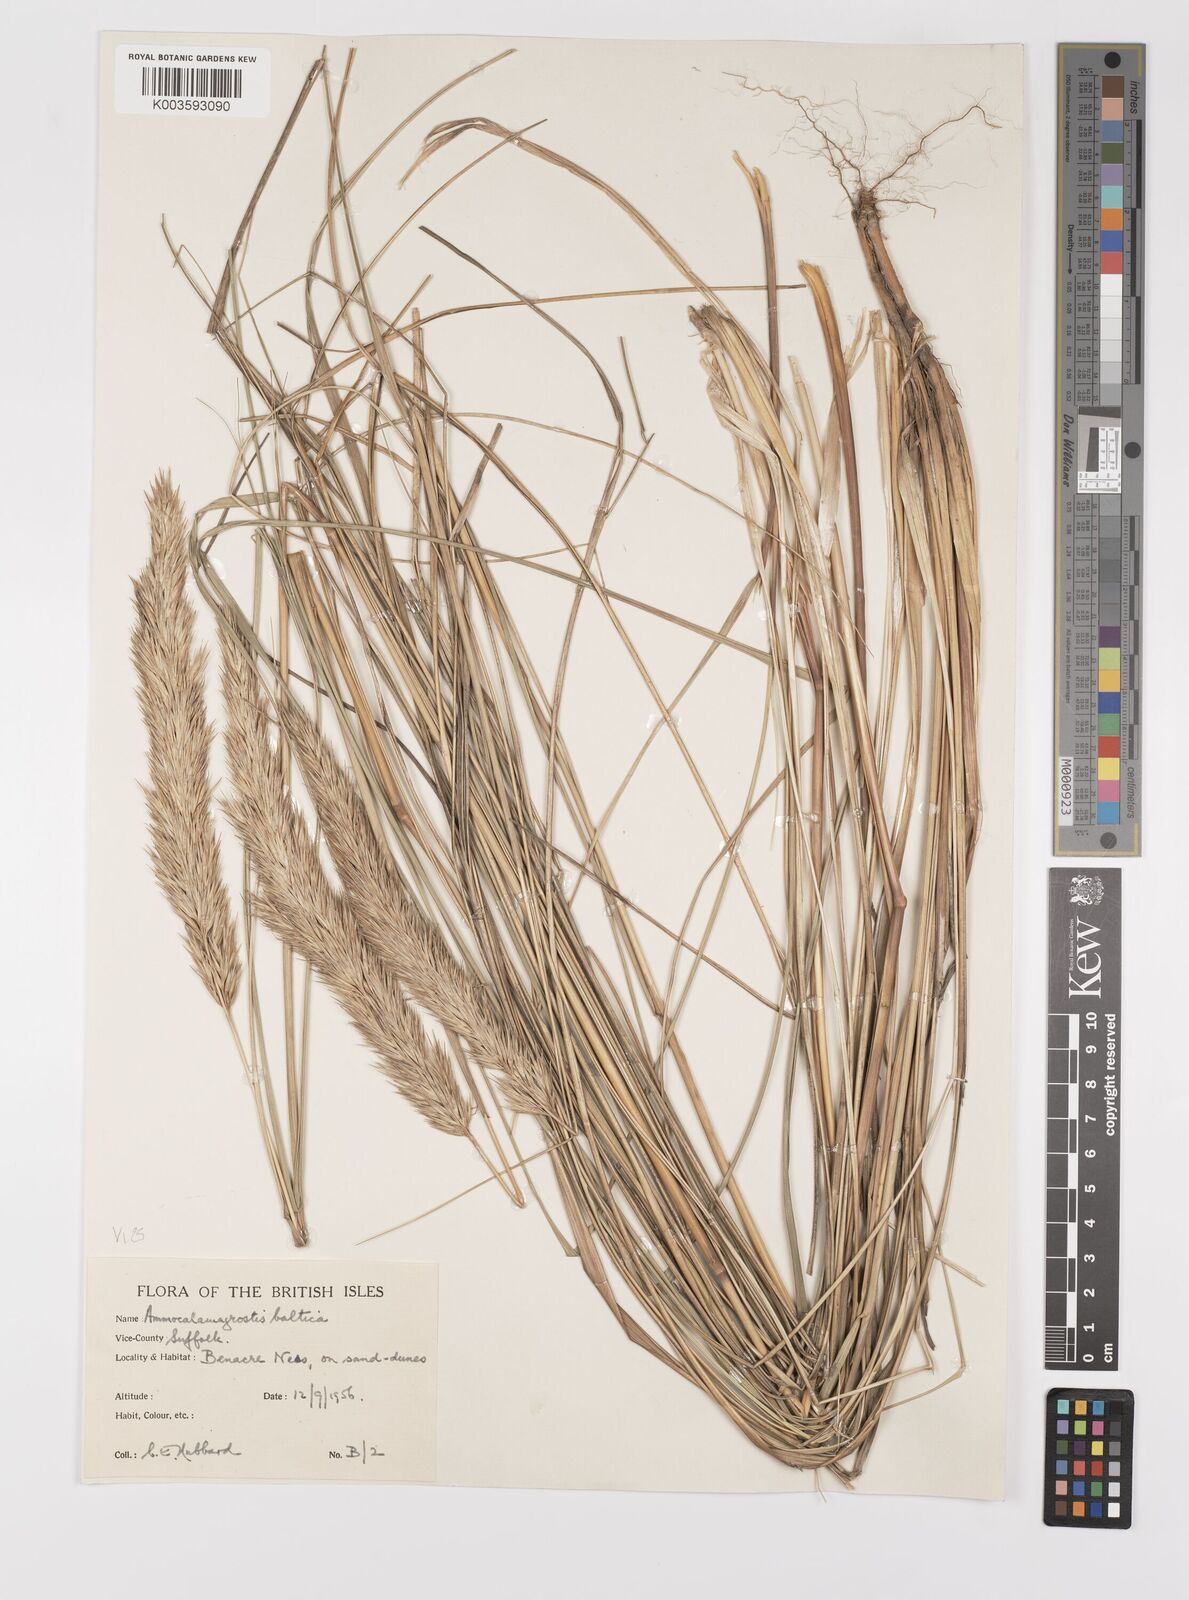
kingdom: Plantae
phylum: Tracheophyta
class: Liliopsida
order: Poales
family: Poaceae
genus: Calamagrostis
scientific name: Calamagrostis baltica
